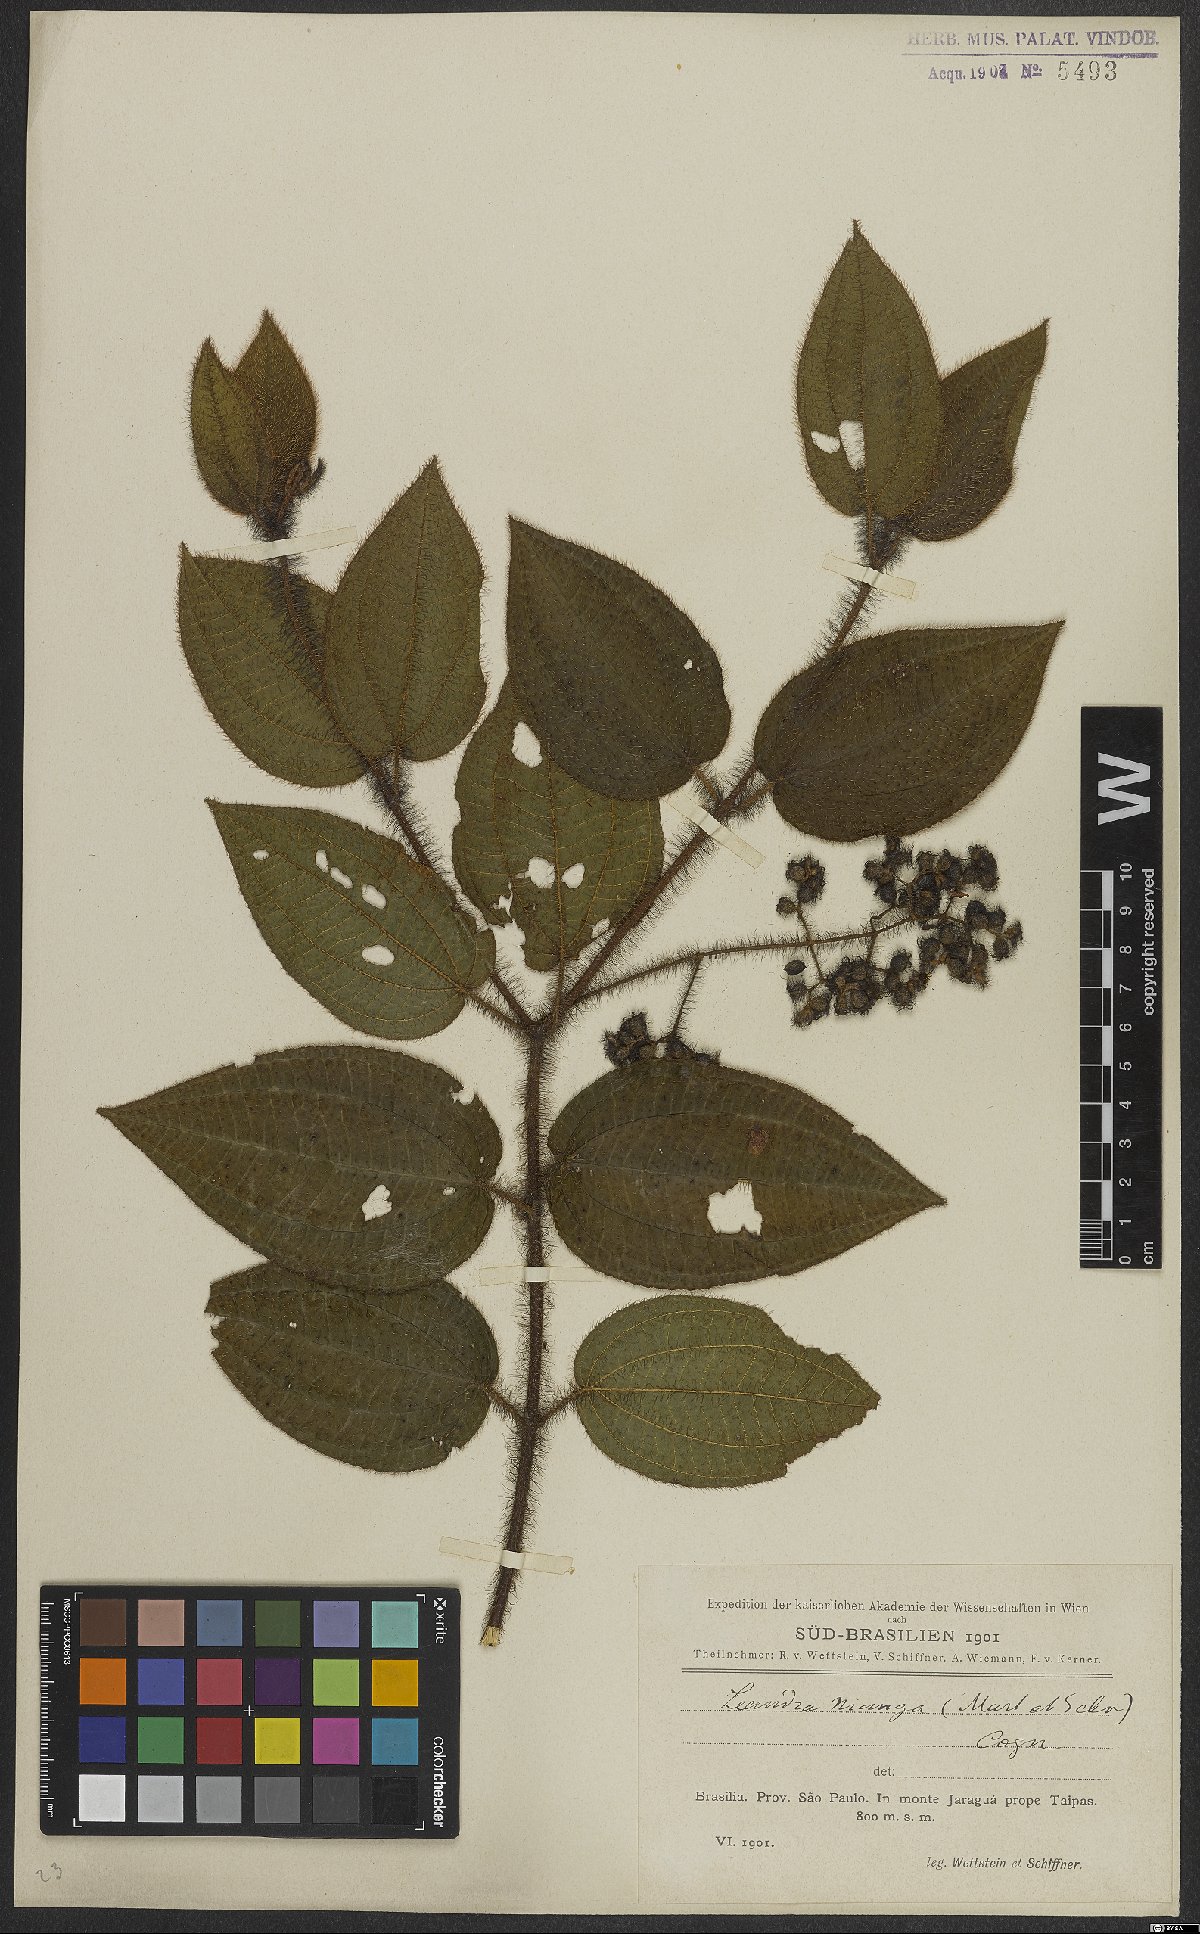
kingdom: Plantae
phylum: Tracheophyta
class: Magnoliopsida
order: Myrtales
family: Melastomataceae
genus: Miconia
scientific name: Miconia nianga
